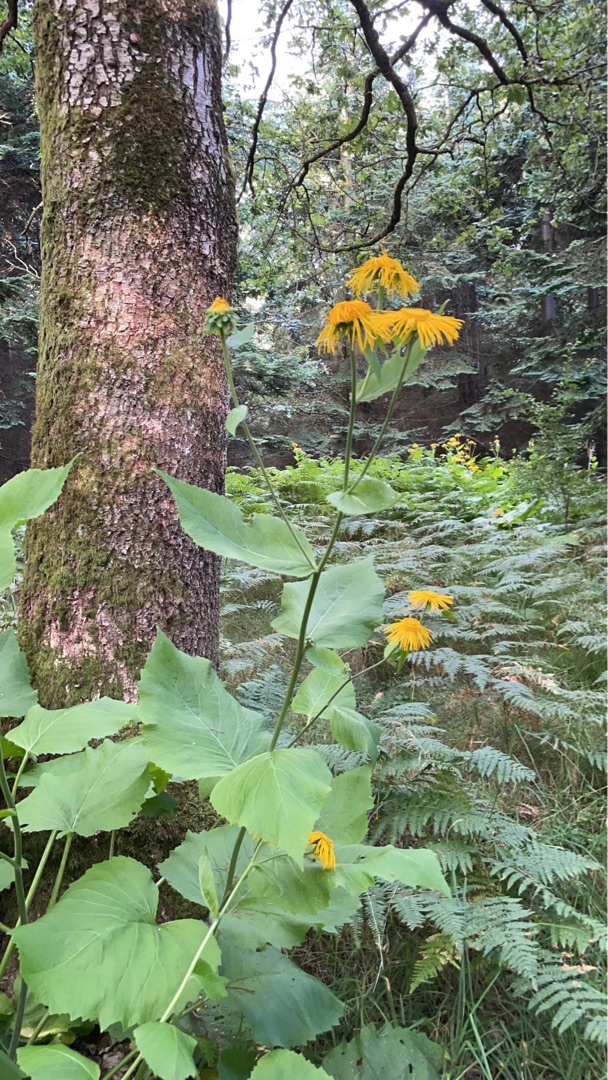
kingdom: Plantae
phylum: Tracheophyta
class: Magnoliopsida
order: Asterales
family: Asteraceae
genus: Telekia
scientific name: Telekia speciosa
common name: Tusindstråle
